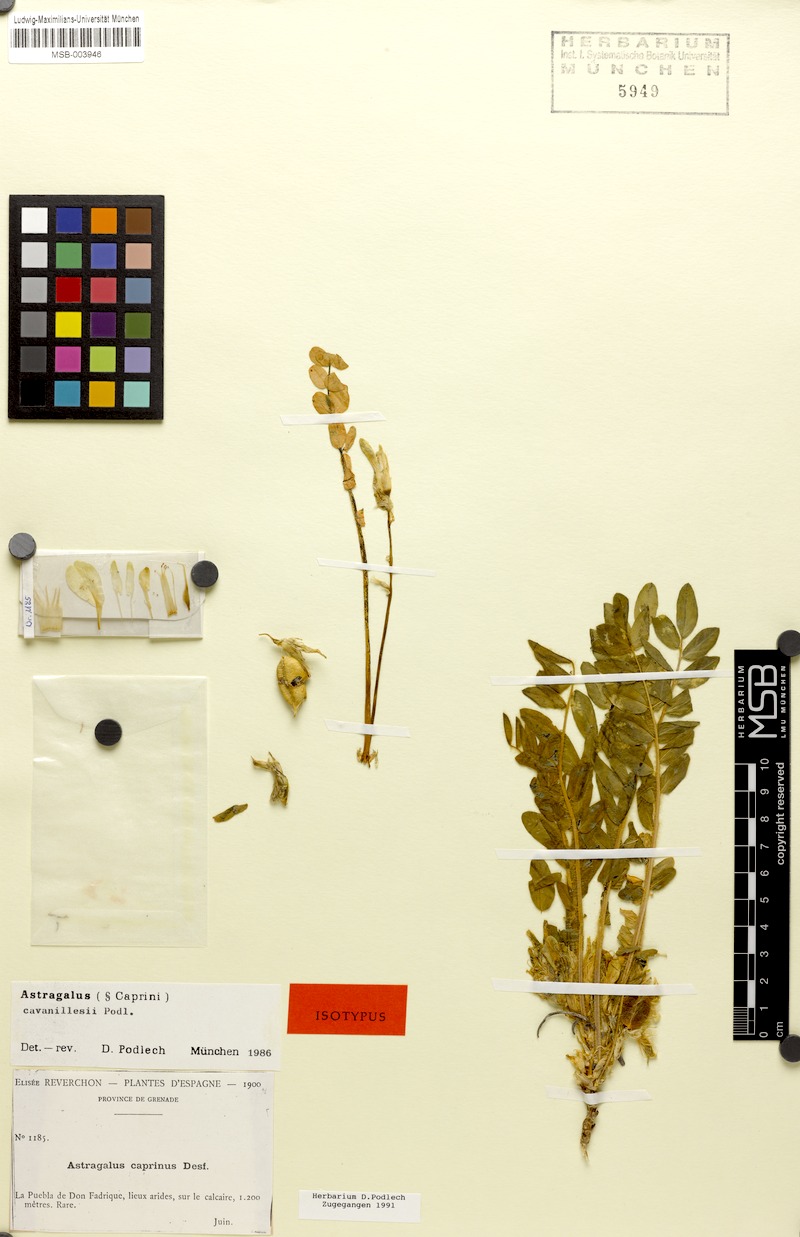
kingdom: Plantae
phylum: Tracheophyta
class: Magnoliopsida
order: Fabales
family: Fabaceae
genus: Astragalus
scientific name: Astragalus cavanillesii
